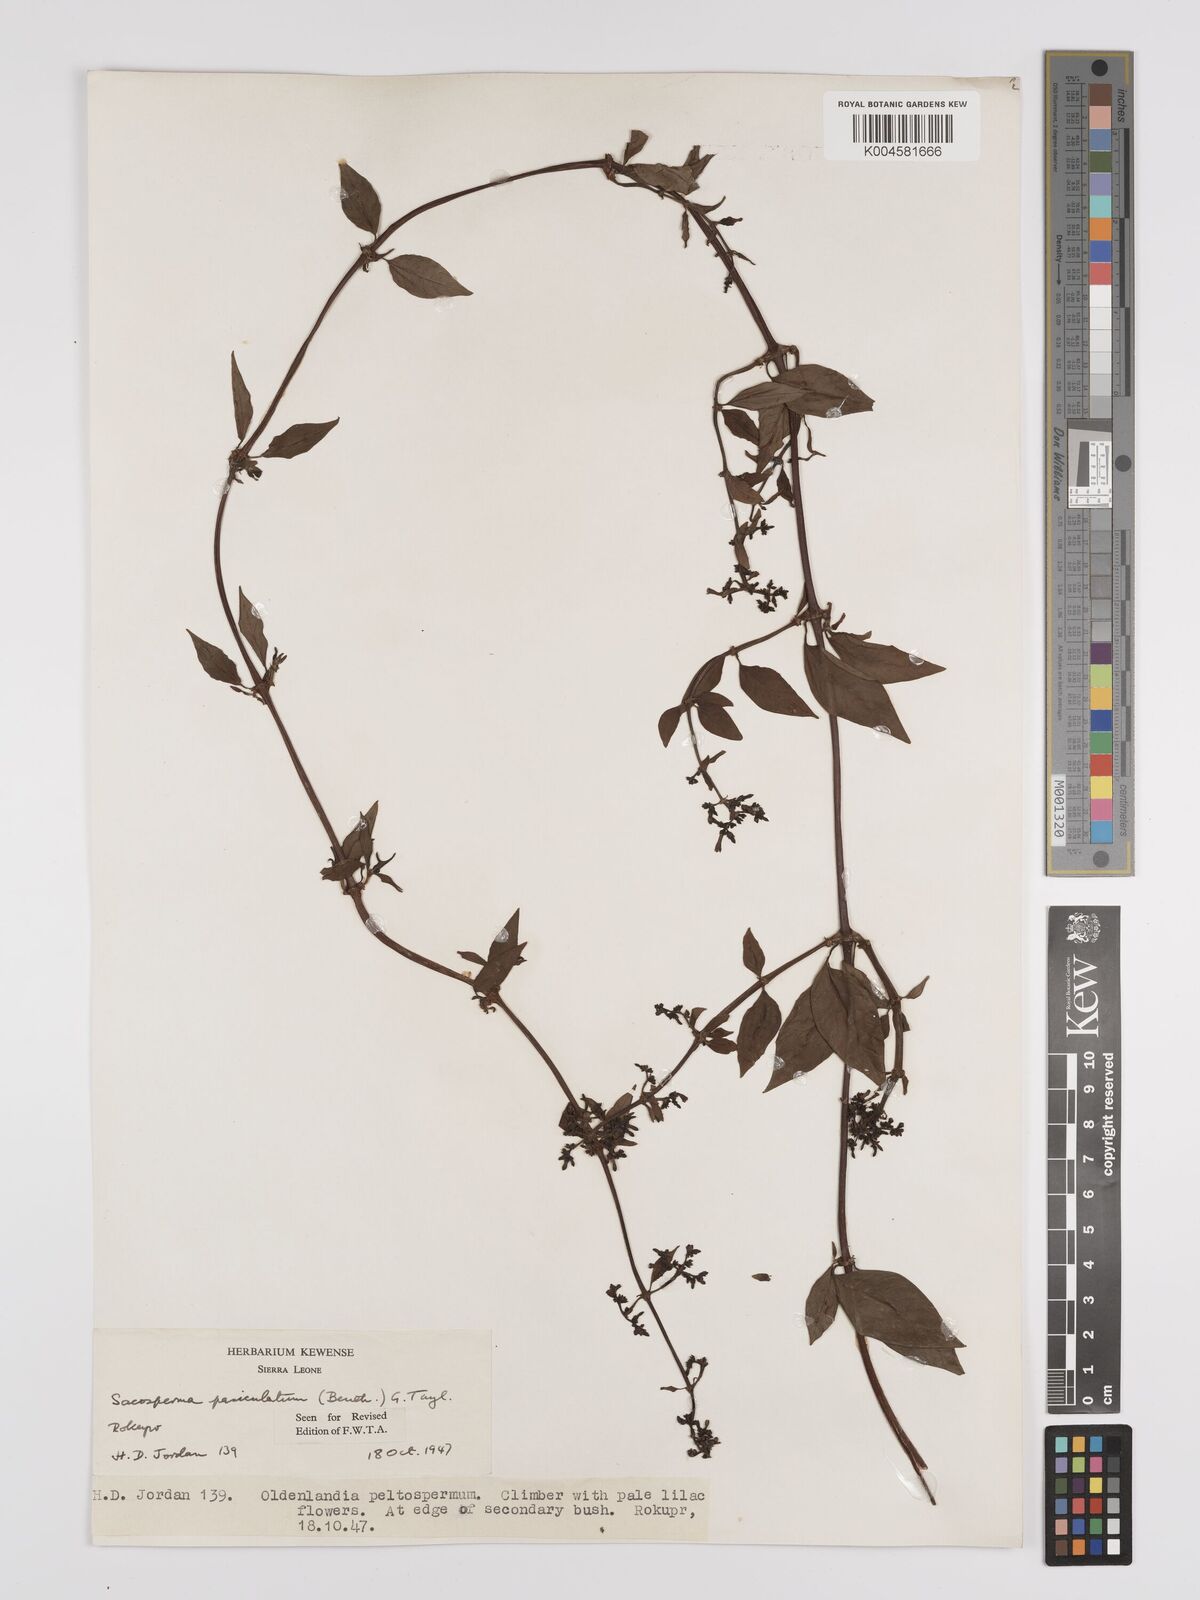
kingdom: Plantae
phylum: Tracheophyta
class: Magnoliopsida
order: Gentianales
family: Rubiaceae
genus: Sacosperma
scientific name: Sacosperma paniculatum
